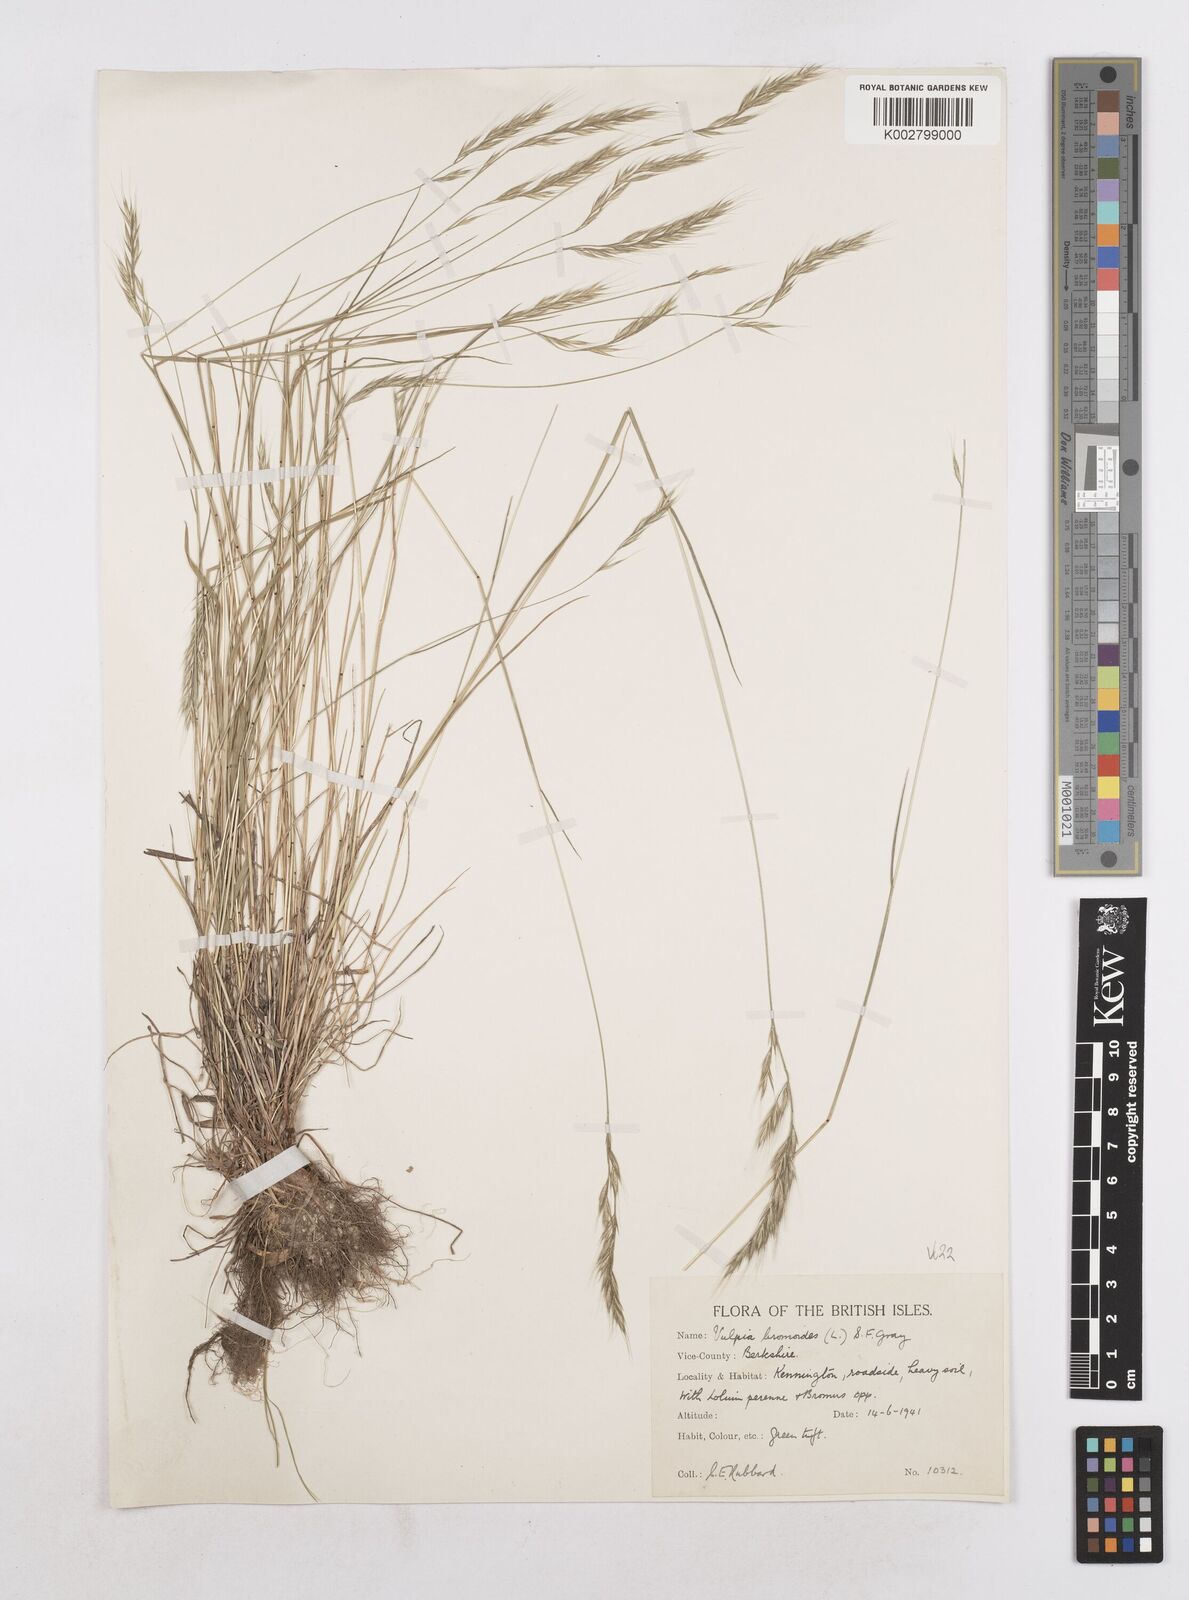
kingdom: Plantae
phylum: Tracheophyta
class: Liliopsida
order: Poales
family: Poaceae
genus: Festuca
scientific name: Festuca bromoides
